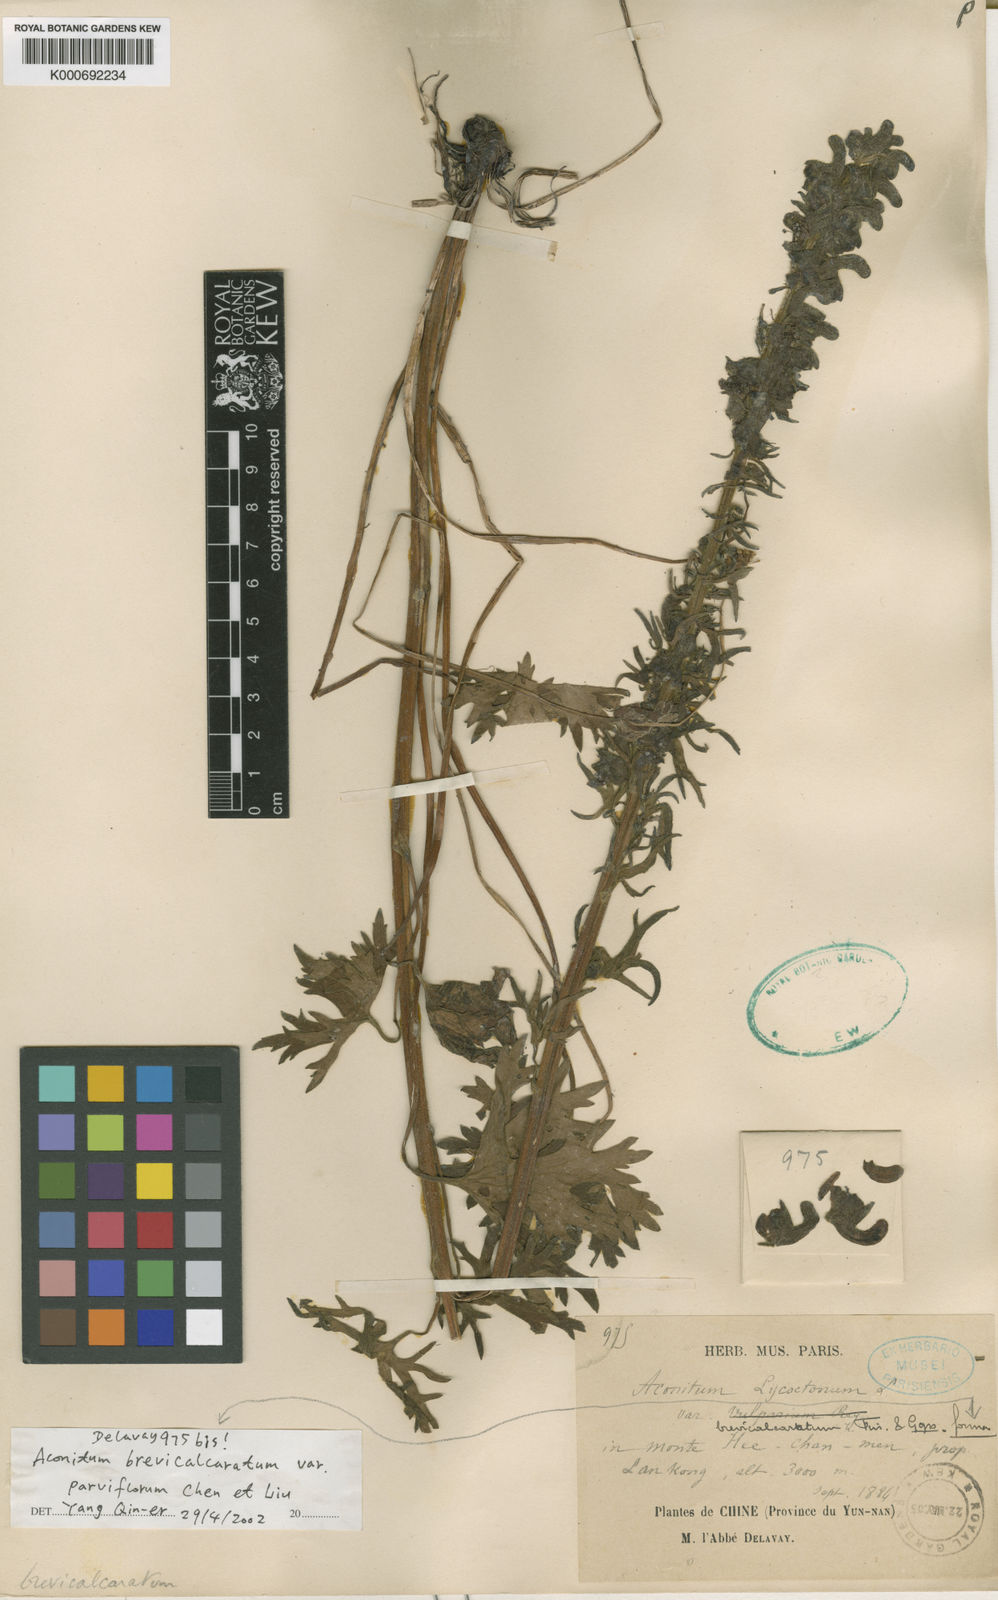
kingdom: Plantae
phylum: Tracheophyta
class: Magnoliopsida
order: Ranunculales
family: Ranunculaceae
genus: Aconitum
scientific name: Aconitum brevicalcaratum
